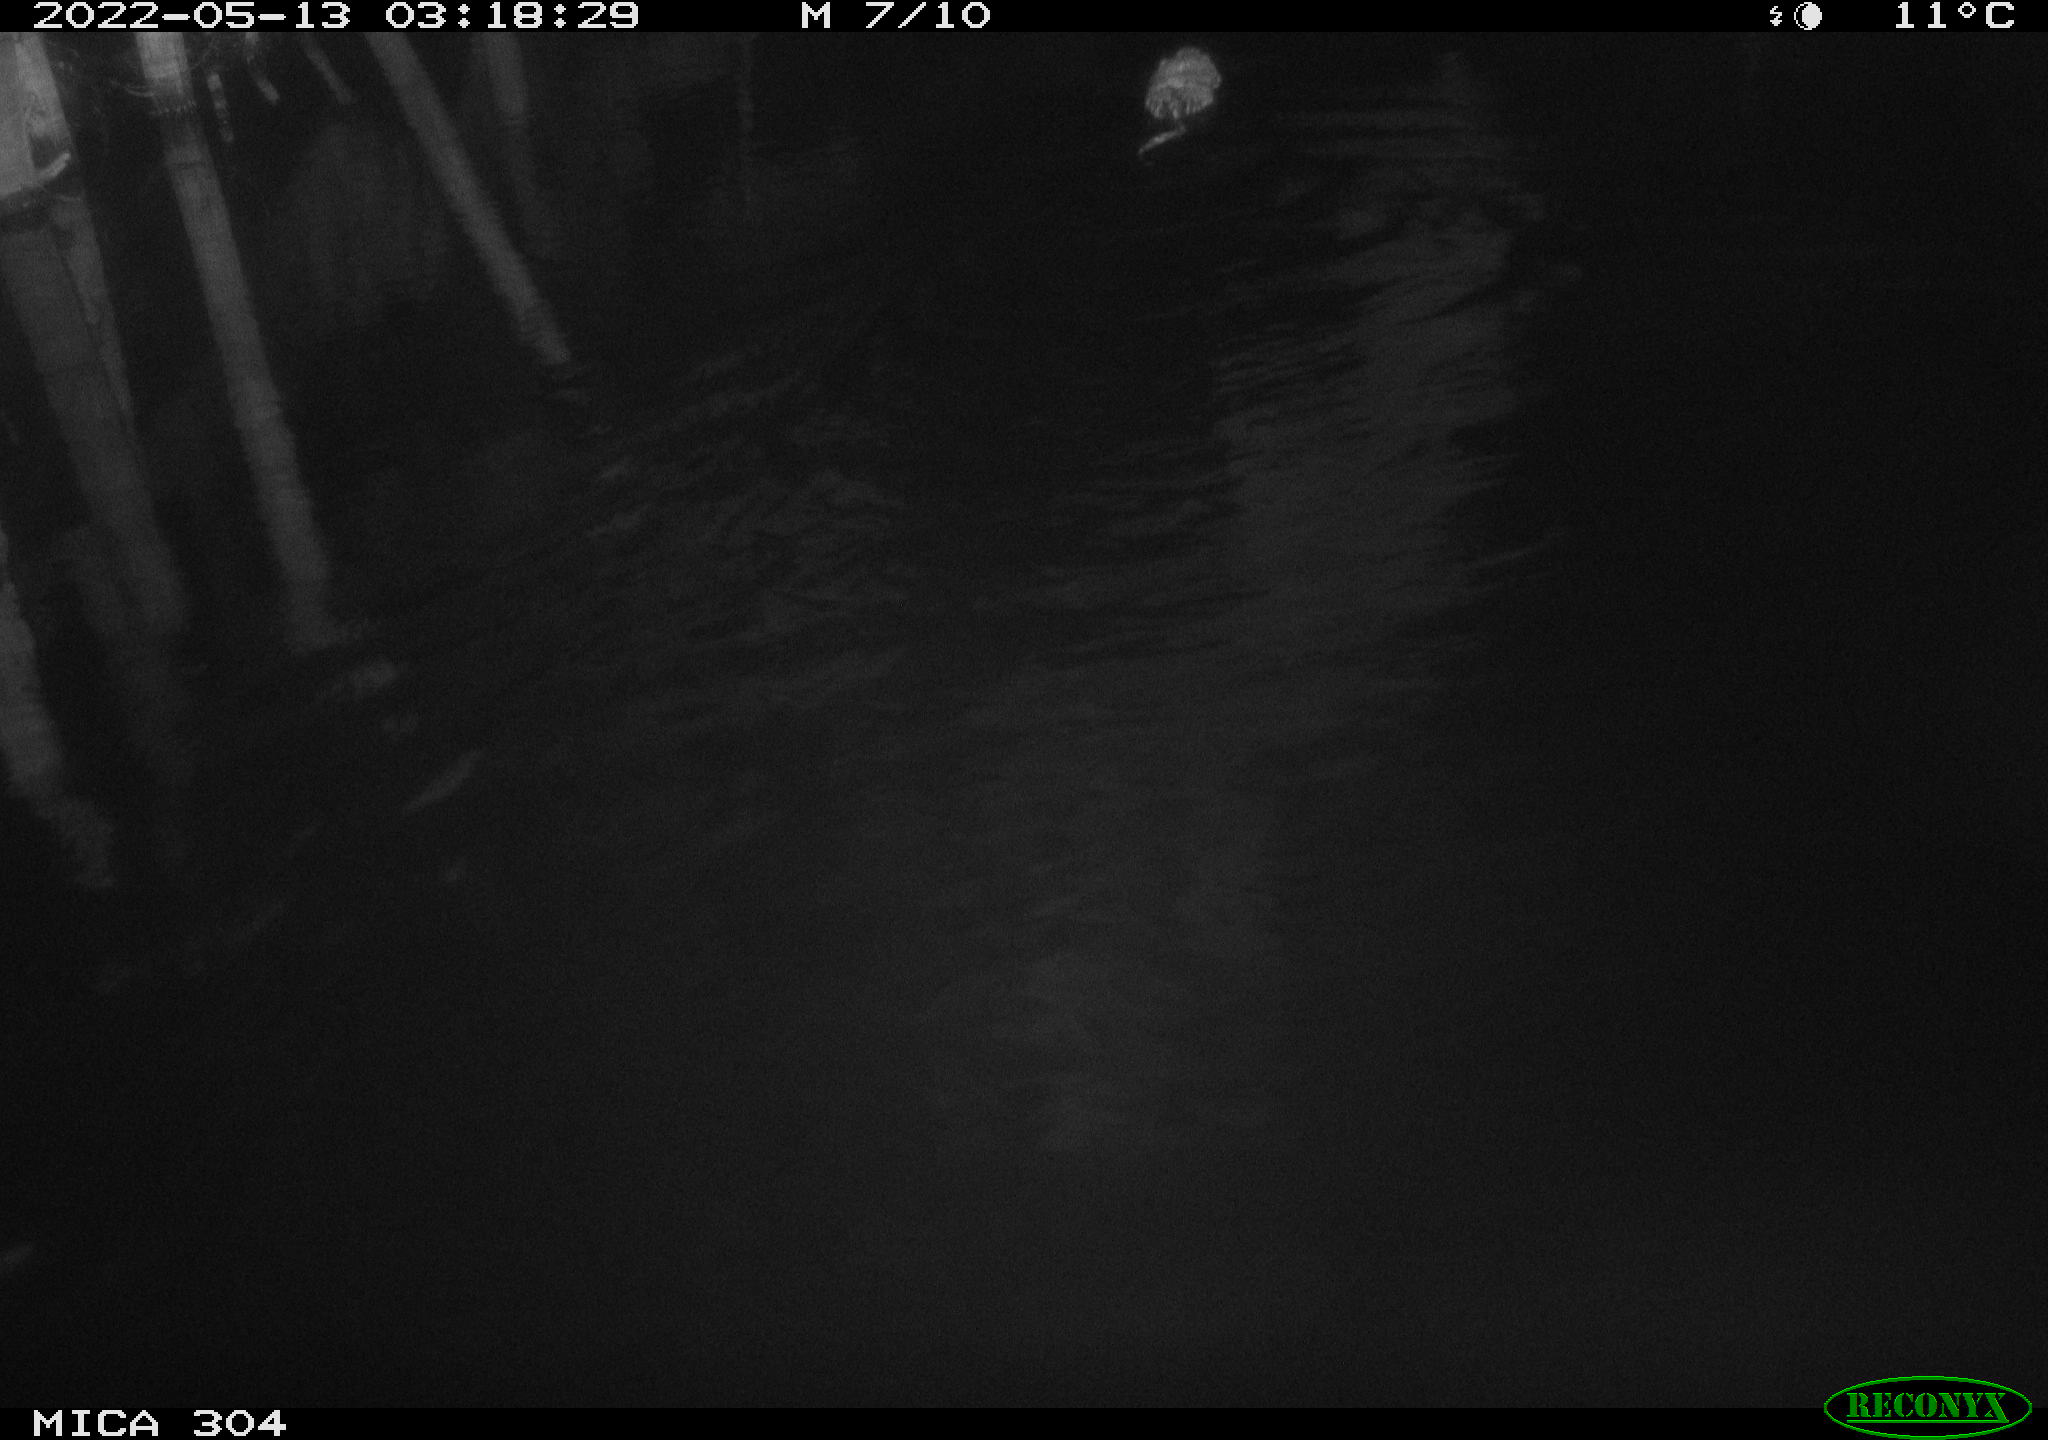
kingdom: Animalia
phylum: Chordata
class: Mammalia
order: Rodentia
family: Cricetidae
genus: Ondatra
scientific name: Ondatra zibethicus
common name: Muskrat
